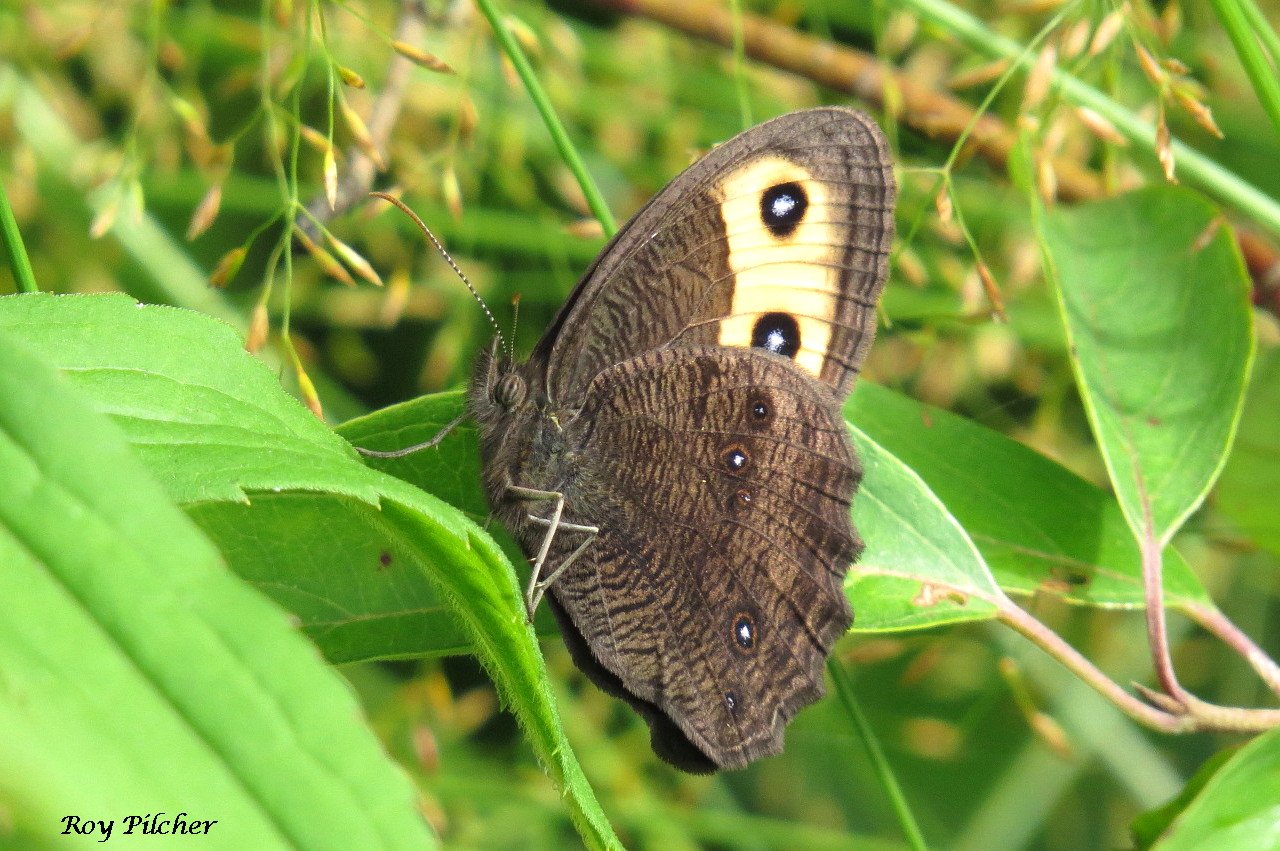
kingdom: Animalia
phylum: Arthropoda
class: Insecta
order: Lepidoptera
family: Nymphalidae
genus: Cercyonis
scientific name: Cercyonis pegala
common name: Common Wood-Nymph
